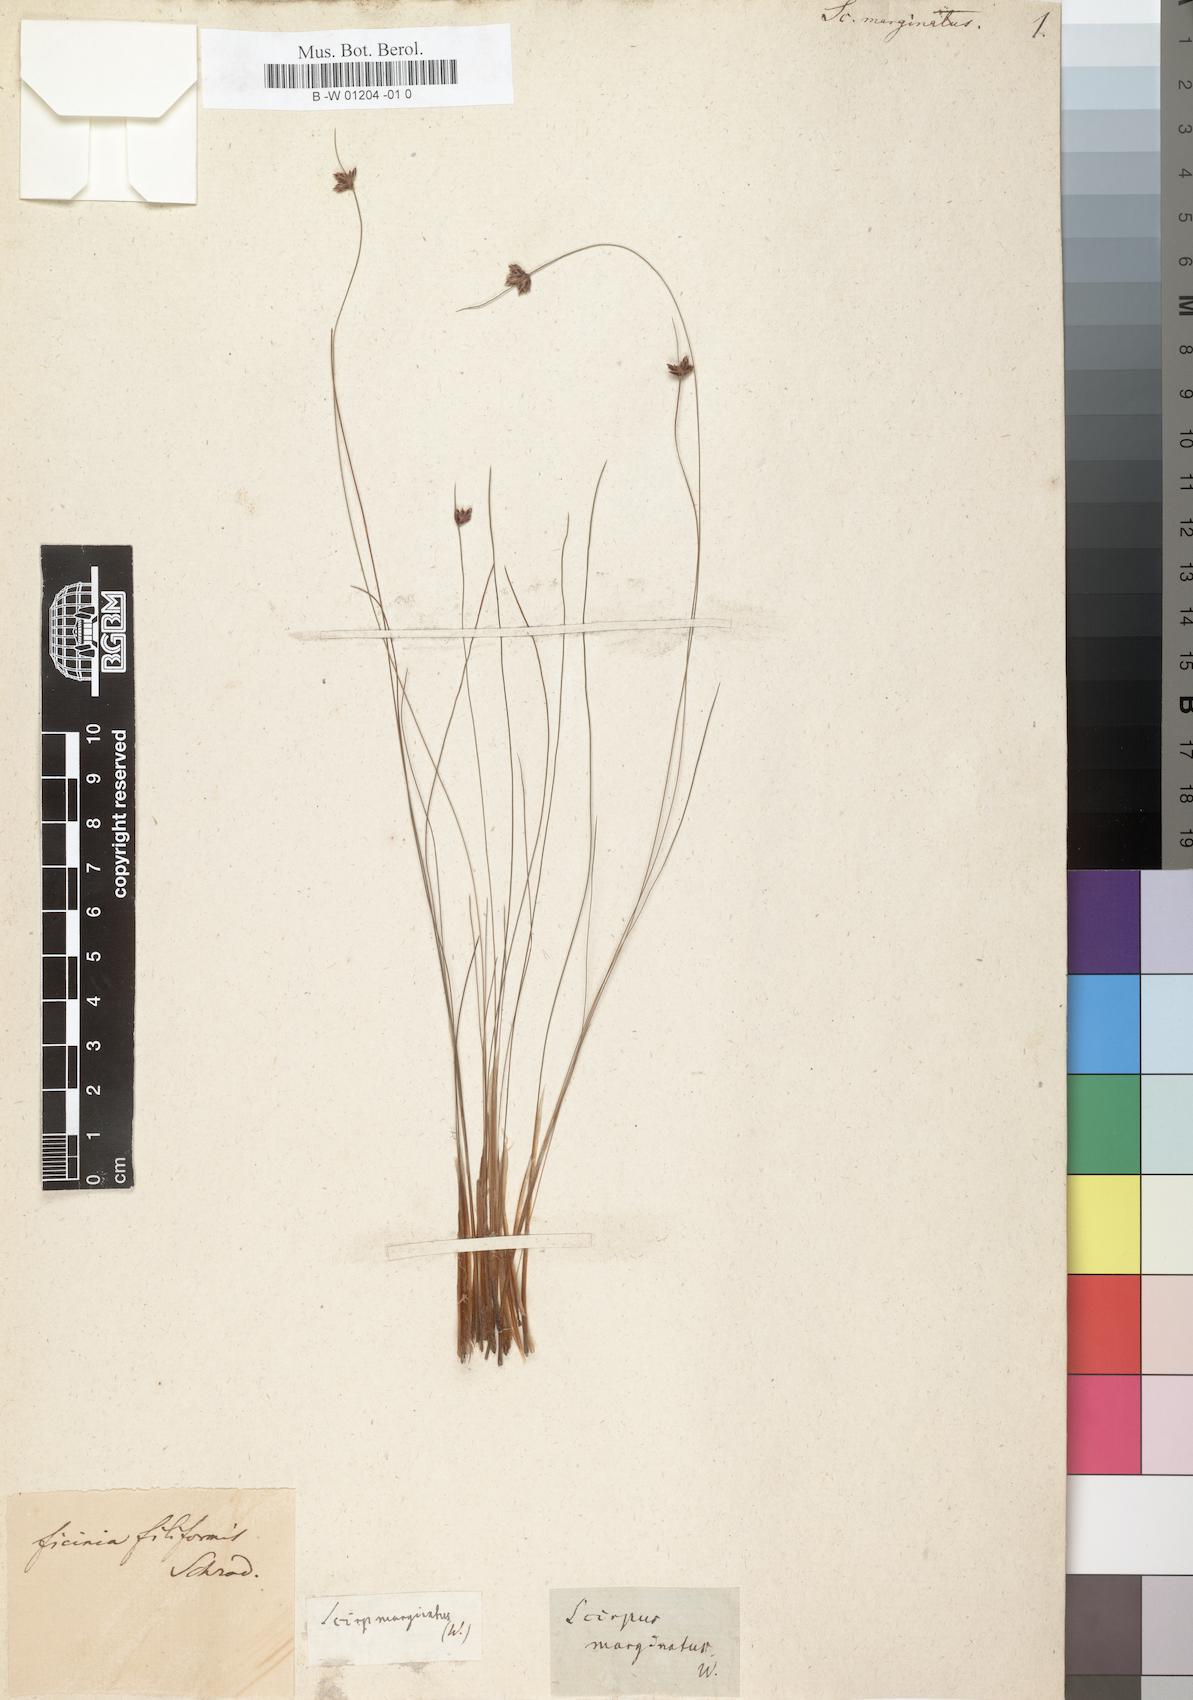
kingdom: Plantae
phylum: Tracheophyta
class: Liliopsida
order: Poales
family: Cyperaceae
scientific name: Cyperaceae
